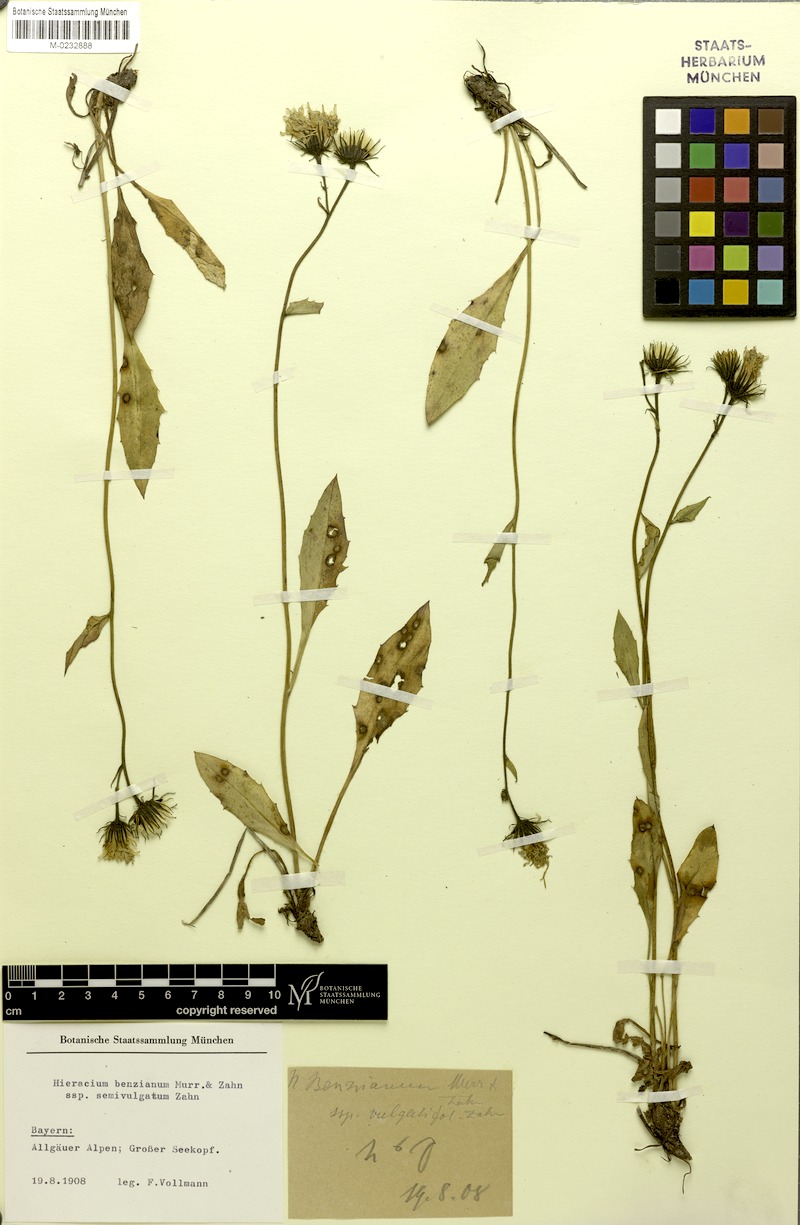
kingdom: Plantae
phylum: Tracheophyta
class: Magnoliopsida
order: Asterales
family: Asteraceae
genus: Hieracium
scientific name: Hieracium benzianum
